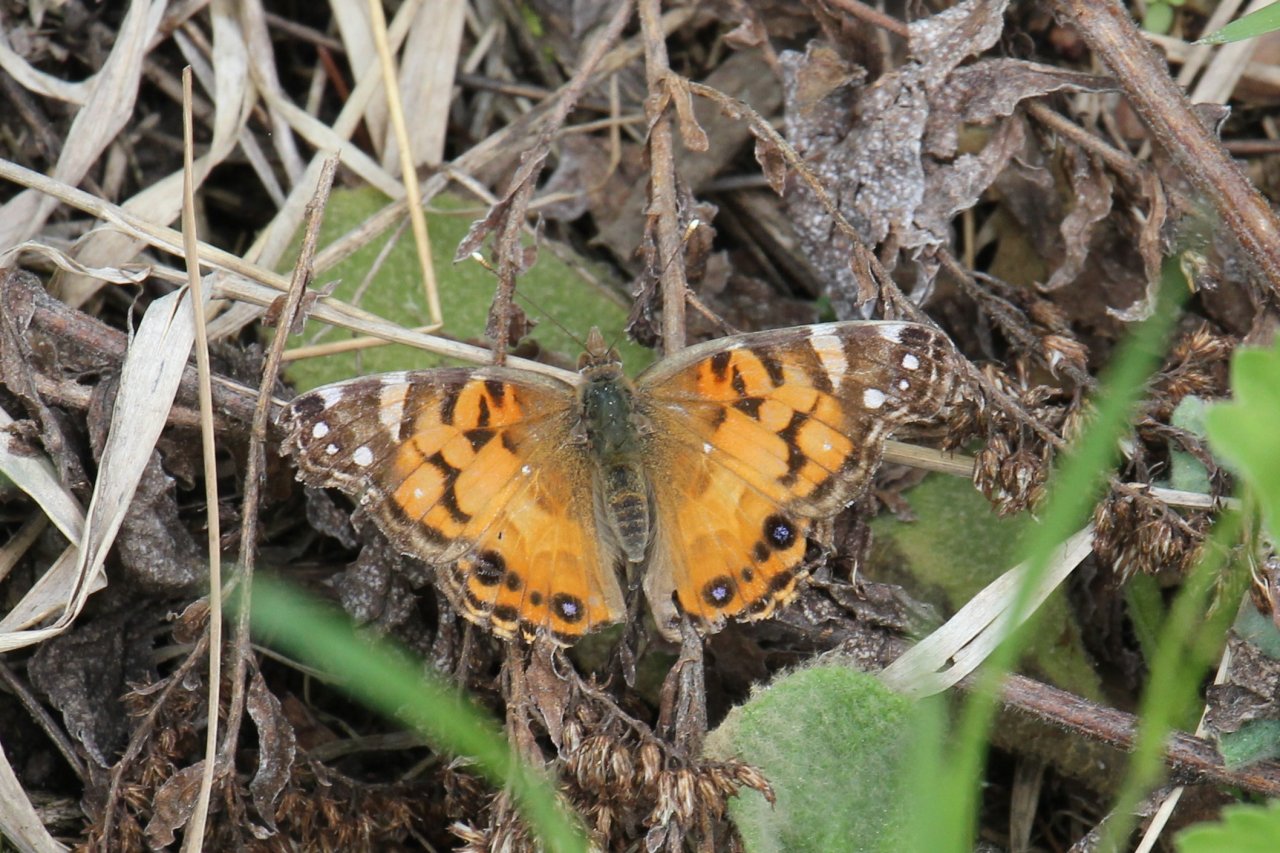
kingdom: Animalia
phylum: Arthropoda
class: Insecta
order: Lepidoptera
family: Nymphalidae
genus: Vanessa
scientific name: Vanessa virginiensis
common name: American Lady
